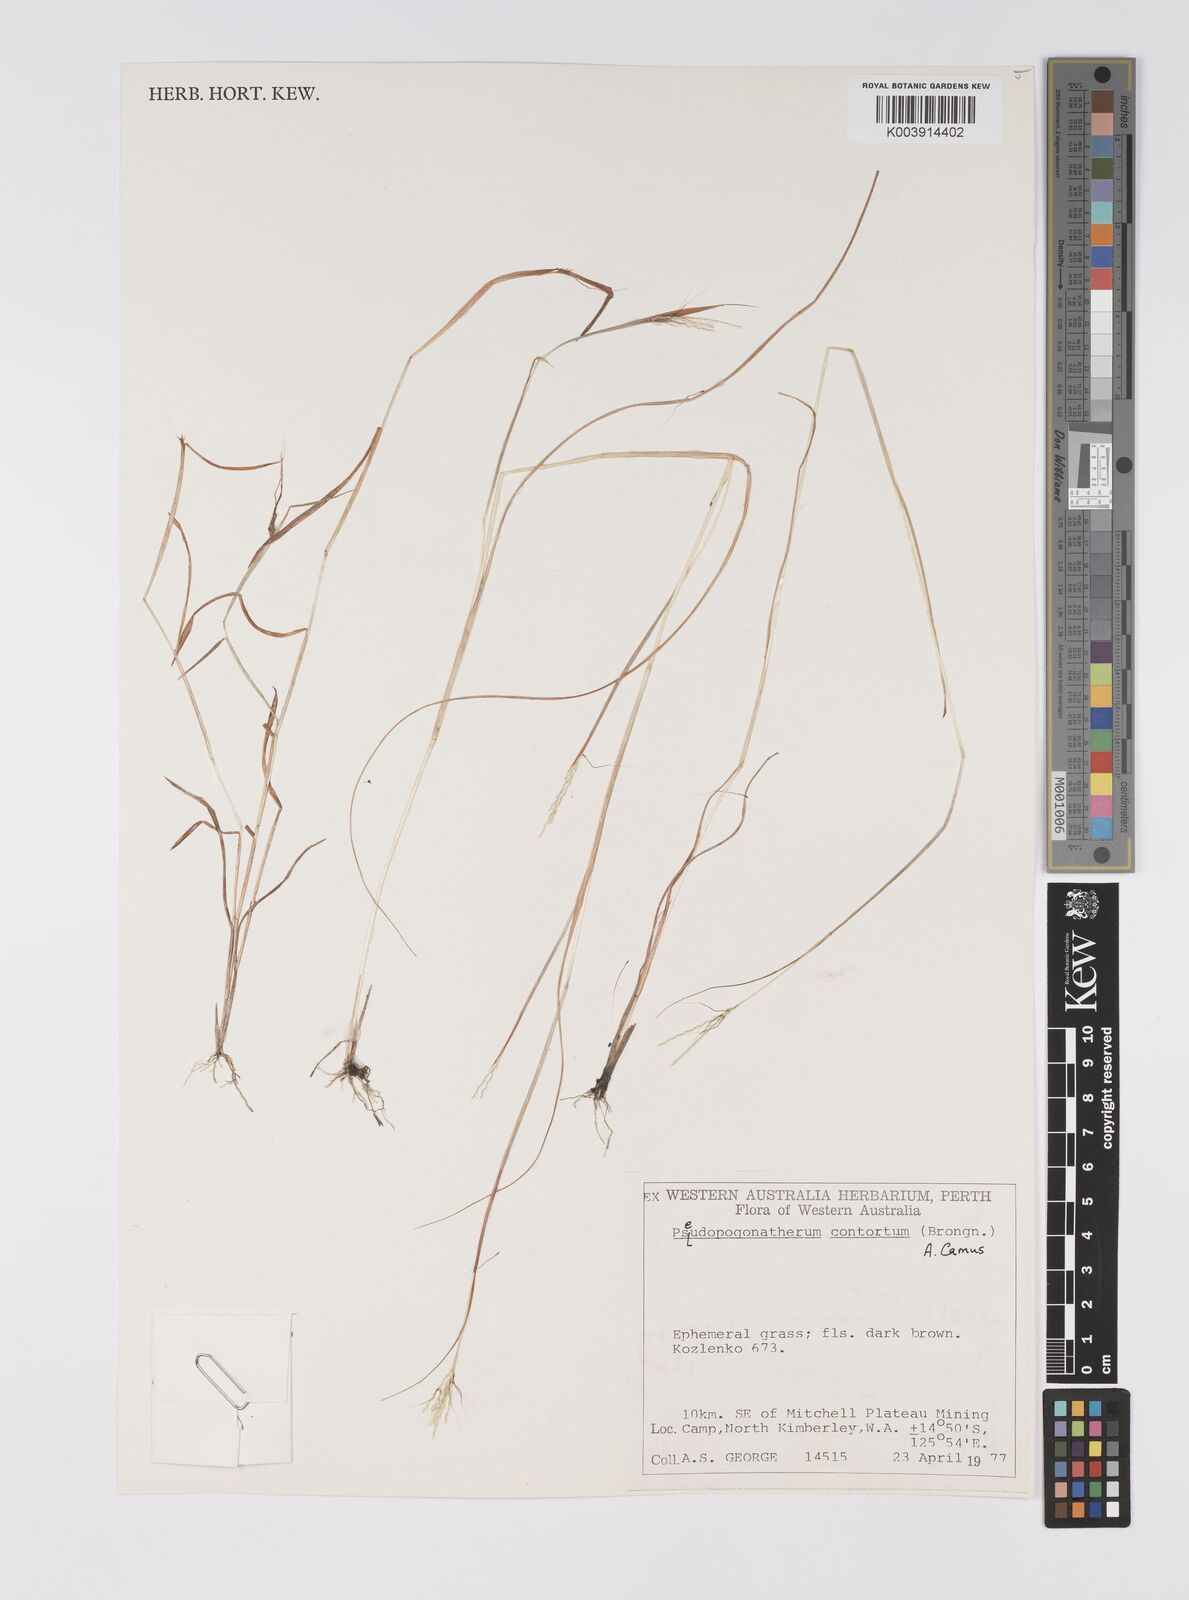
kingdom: Plantae
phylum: Tracheophyta
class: Liliopsida
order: Poales
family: Poaceae
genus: Pseudopogonatherum
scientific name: Pseudopogonatherum contortum
